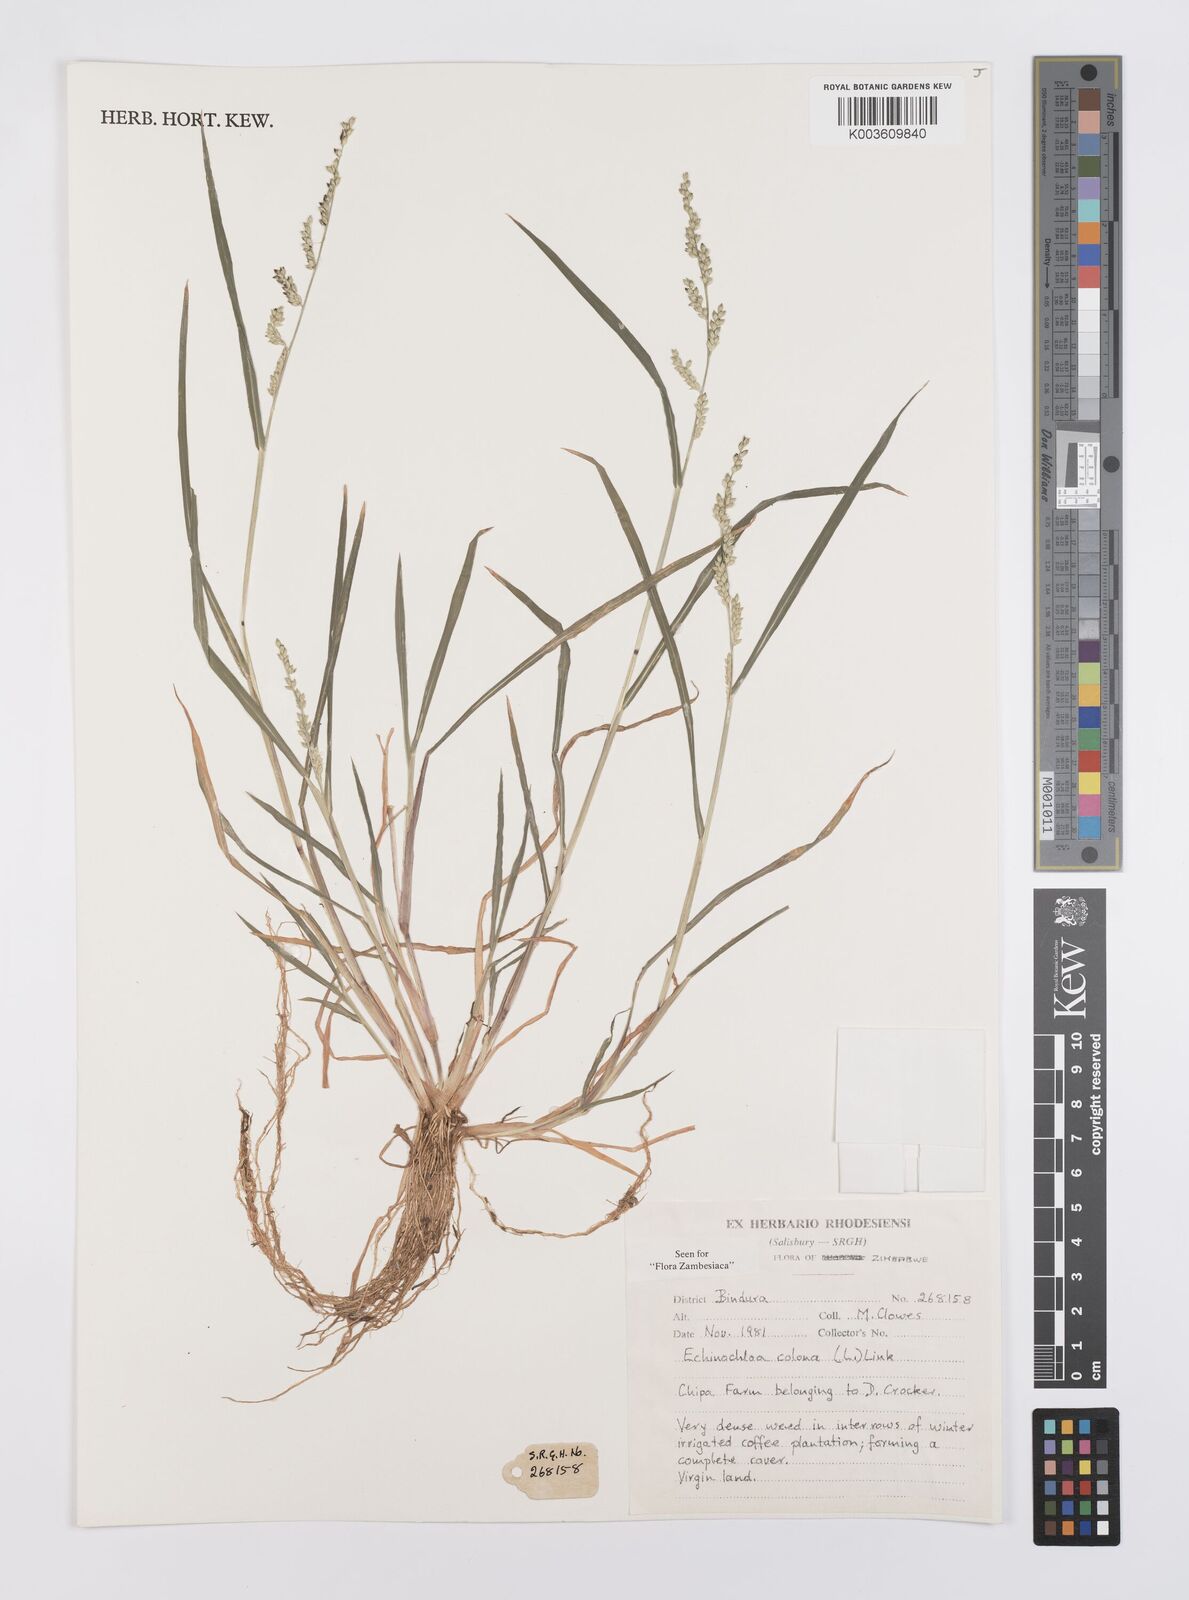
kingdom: Plantae
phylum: Tracheophyta
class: Liliopsida
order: Poales
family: Poaceae
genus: Echinochloa
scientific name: Echinochloa colonum
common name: Jungle rice
